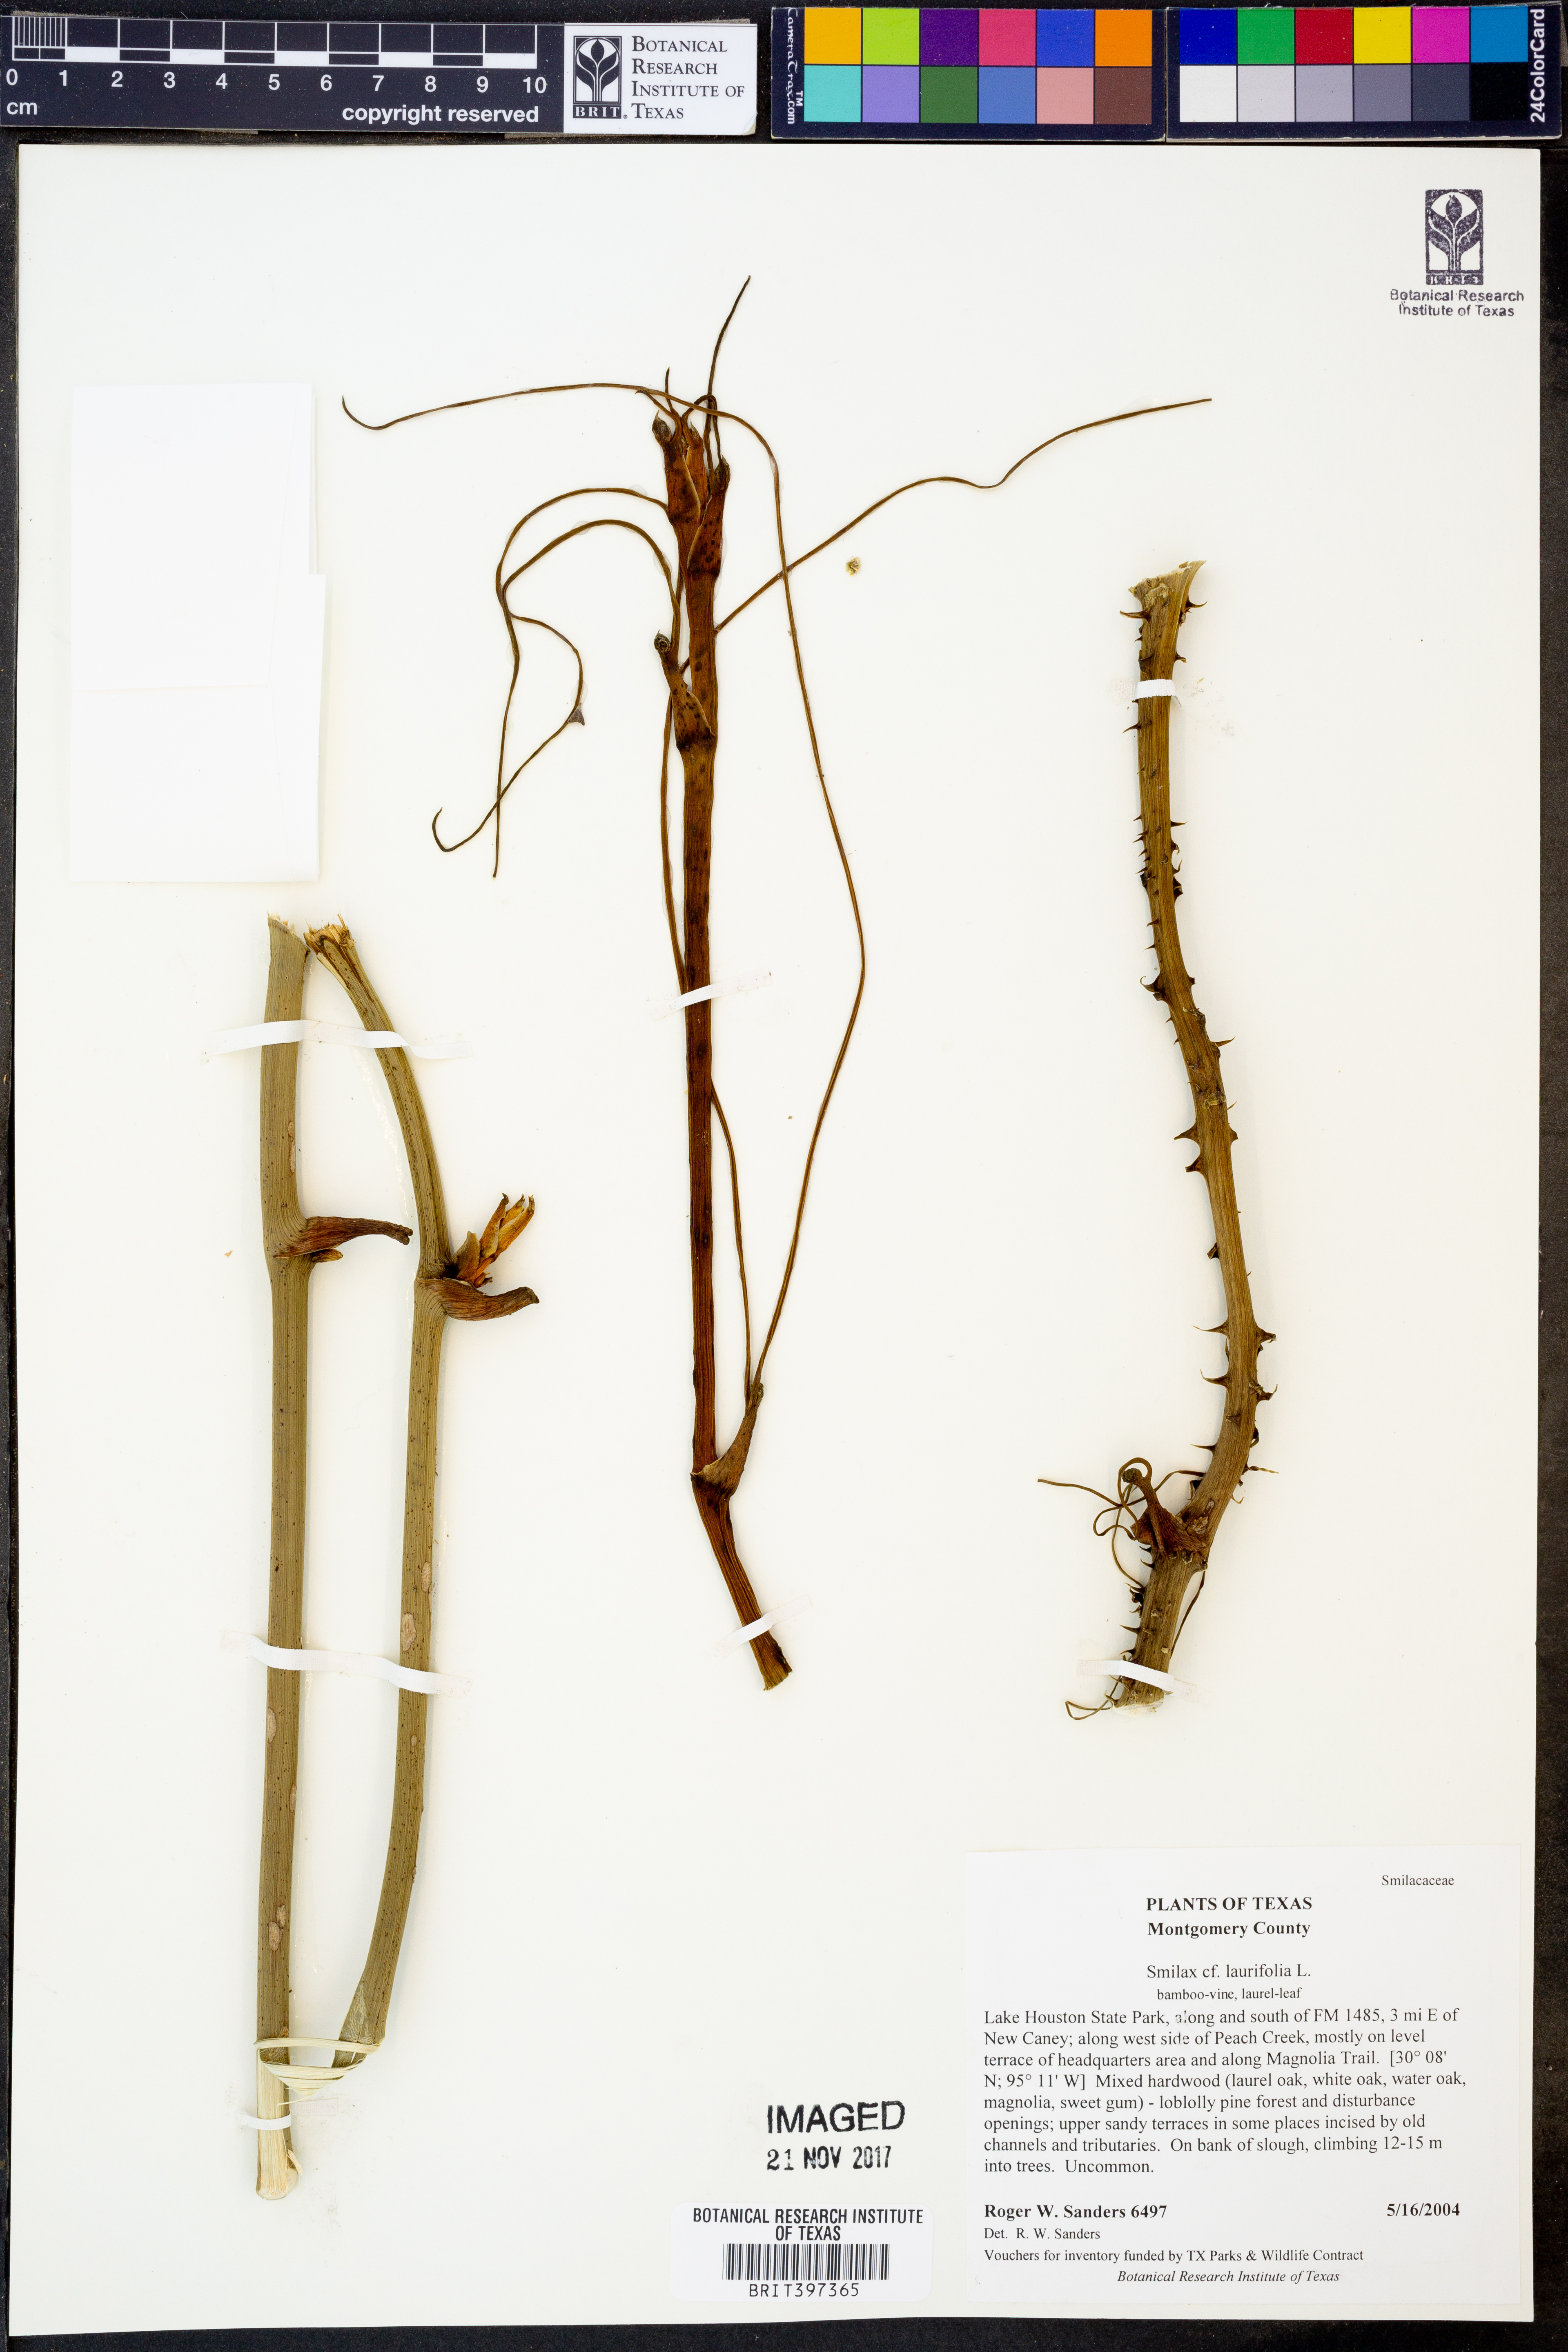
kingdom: Plantae
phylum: Tracheophyta
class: Liliopsida
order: Liliales
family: Smilacaceae
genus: Smilax
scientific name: Smilax laurifolia
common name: Bamboovine
